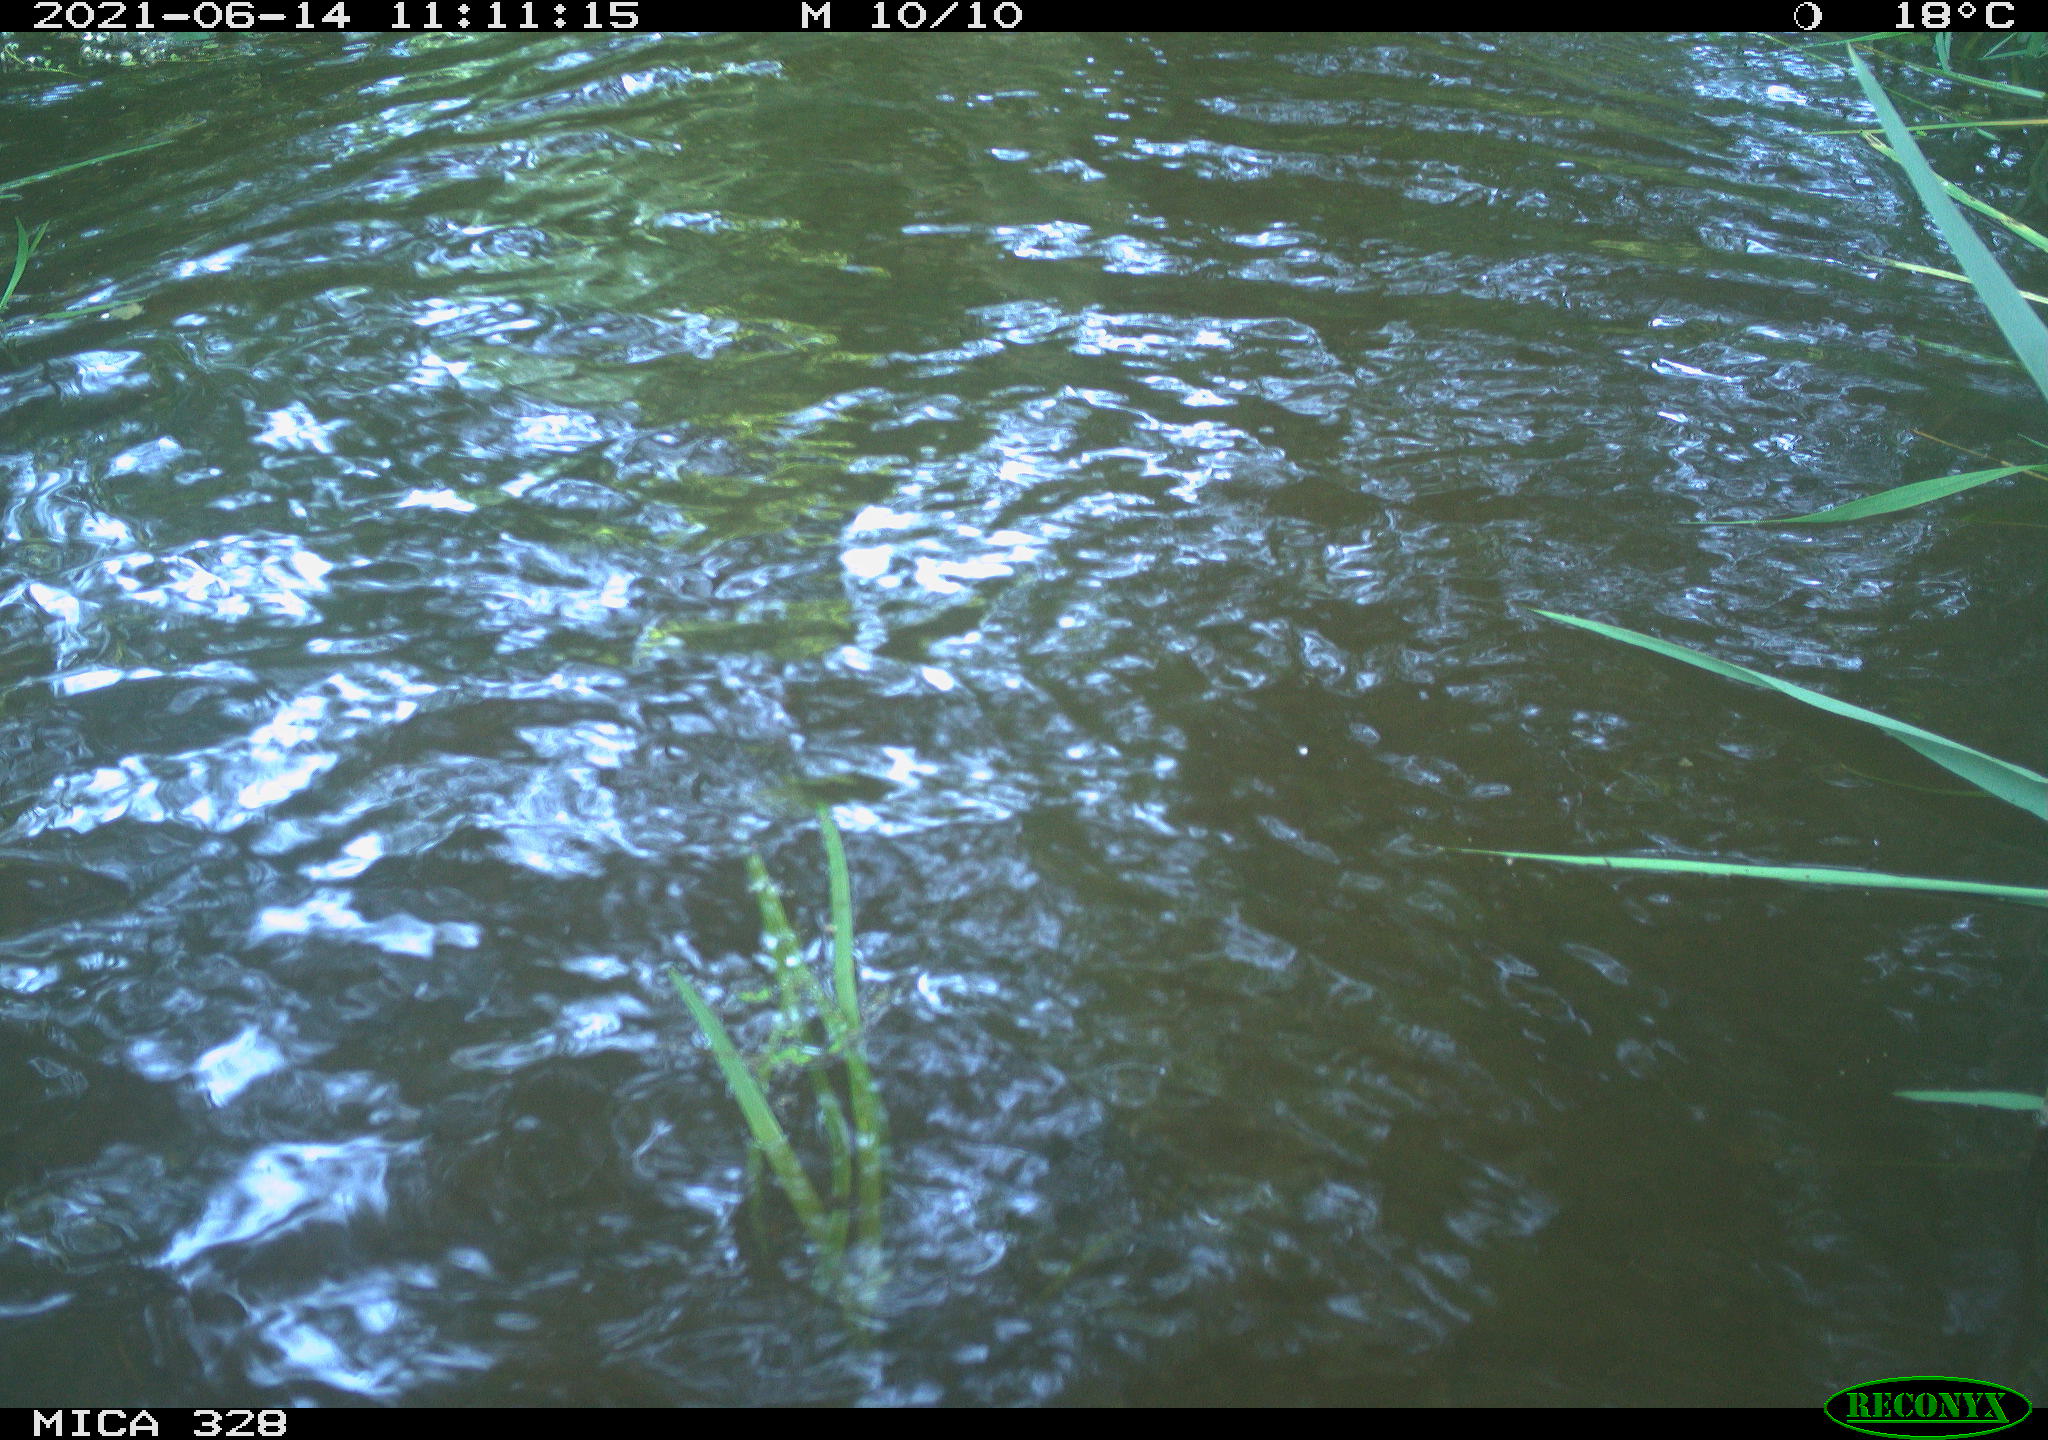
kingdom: Animalia
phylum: Chordata
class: Aves
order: Anseriformes
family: Anatidae
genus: Aix
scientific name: Aix galericulata
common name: Mandarin duck
